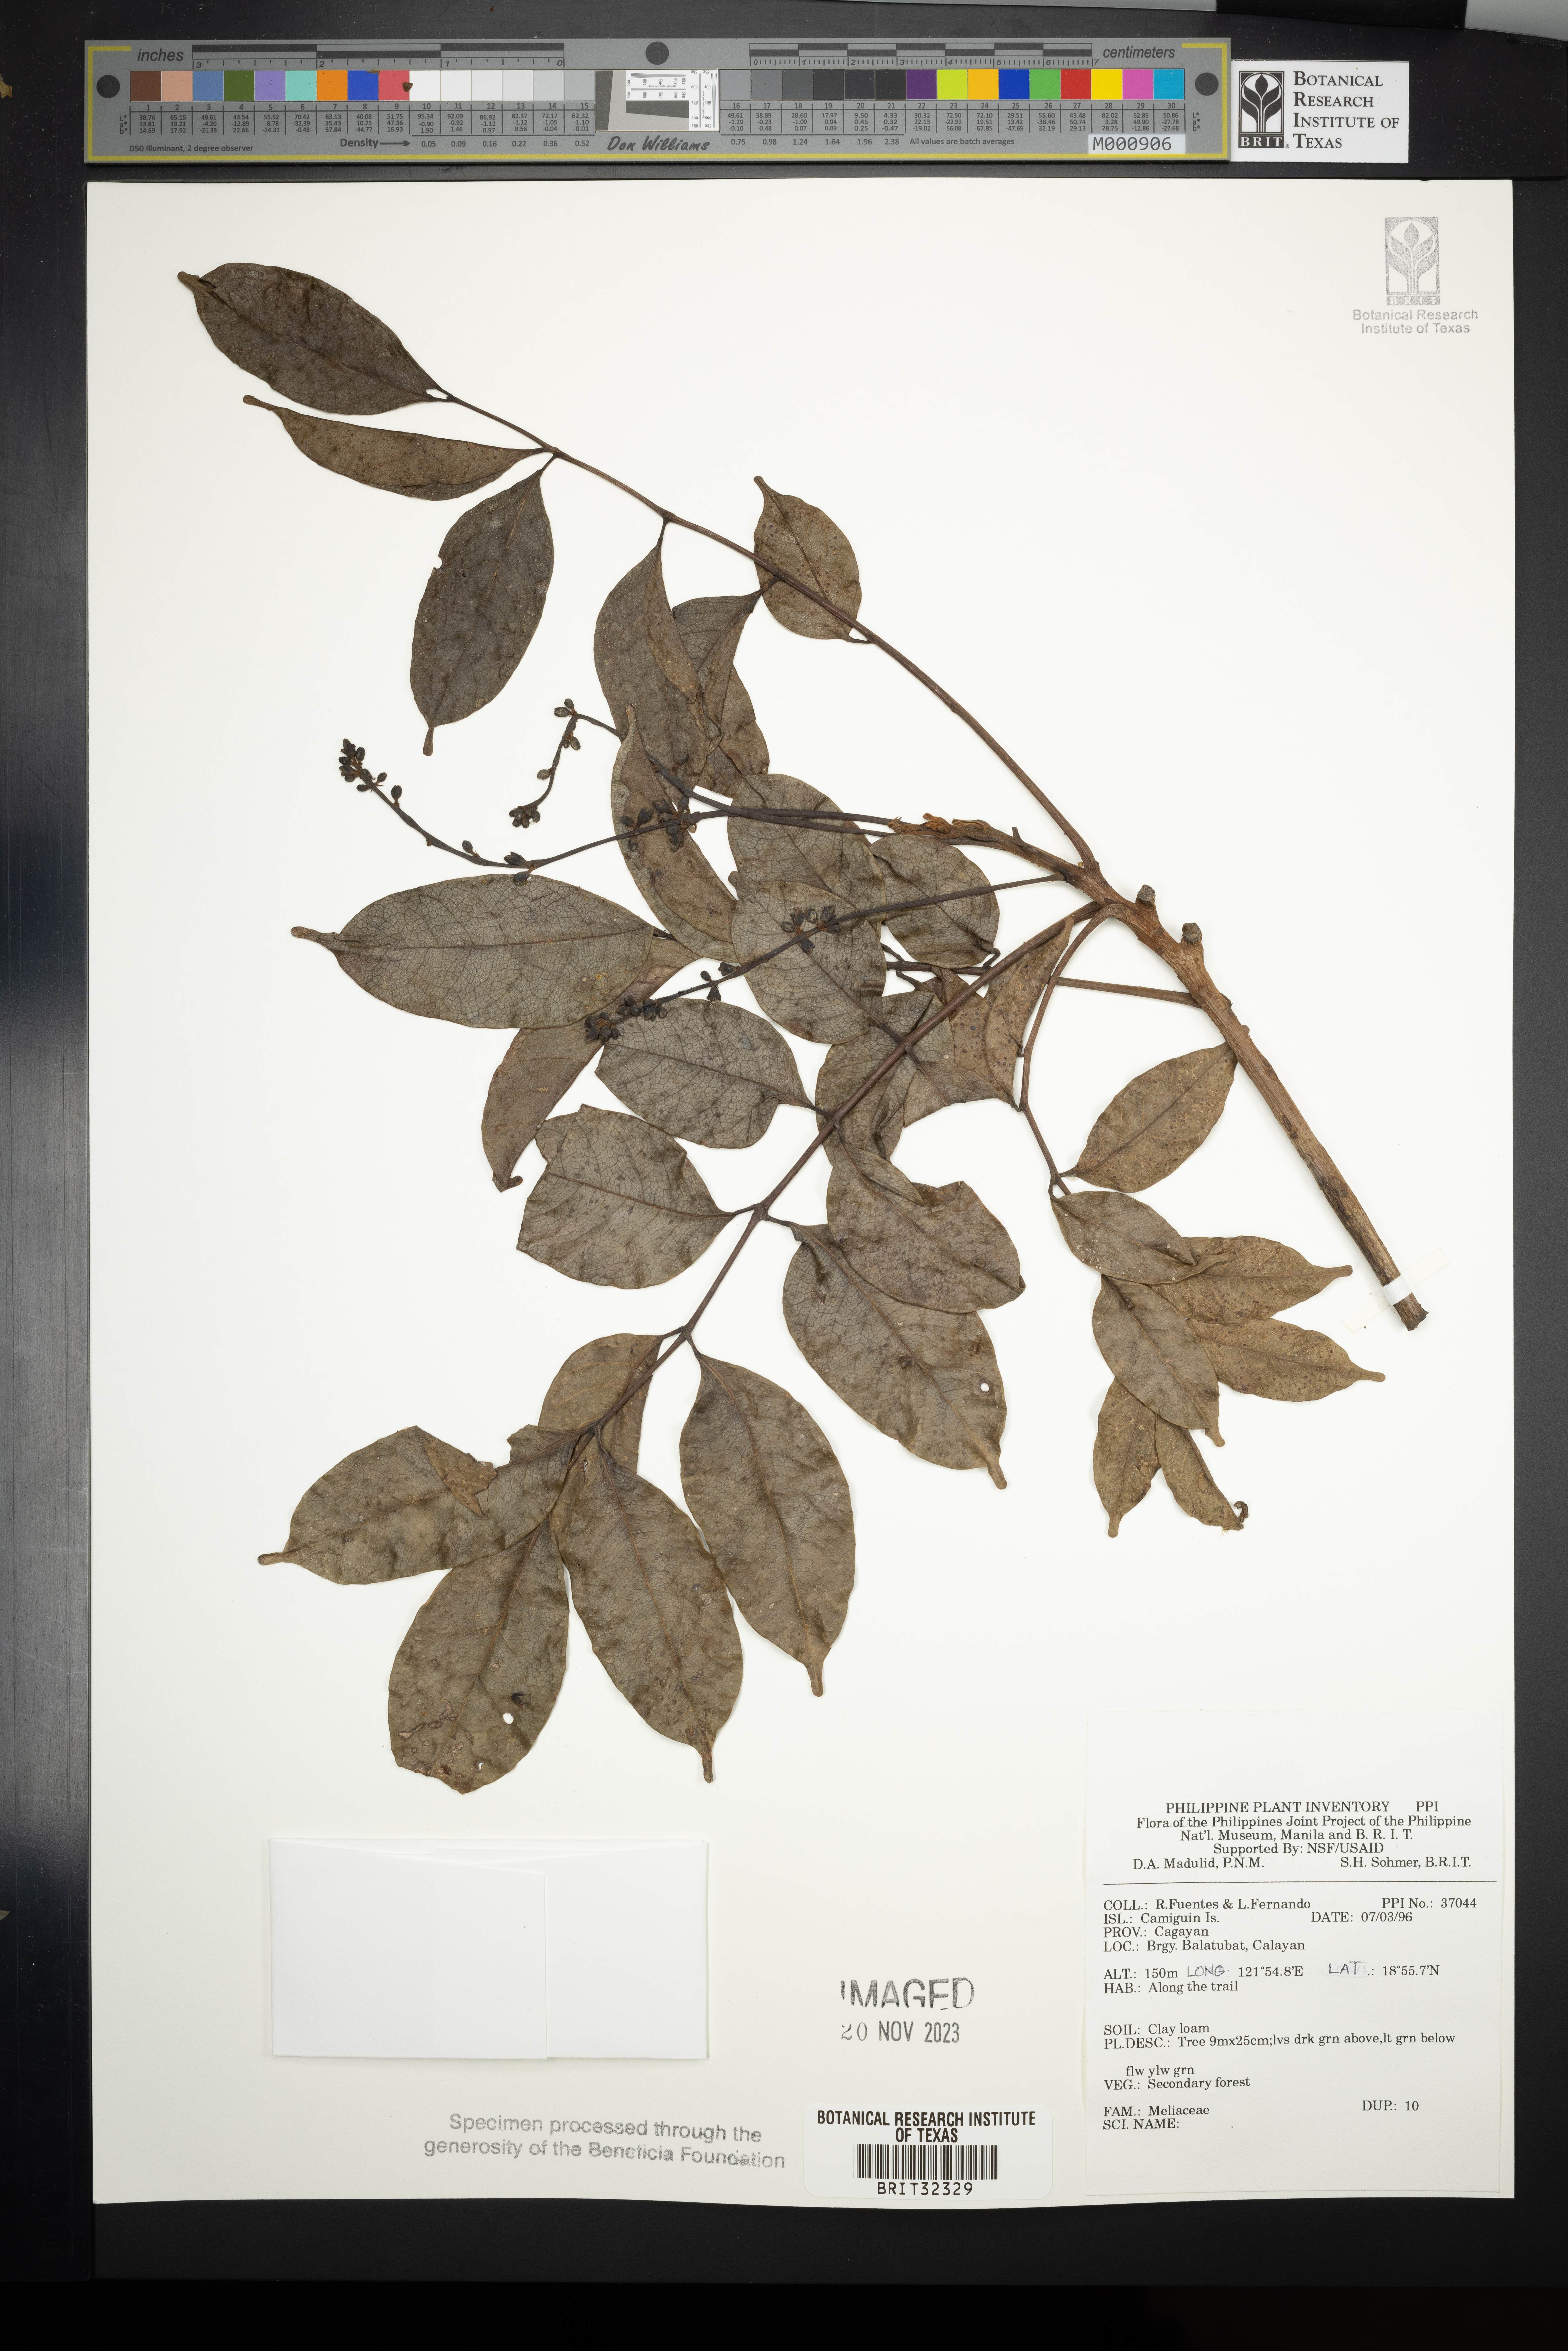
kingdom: Plantae
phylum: Tracheophyta
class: Magnoliopsida
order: Sapindales
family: Meliaceae
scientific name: Meliaceae
